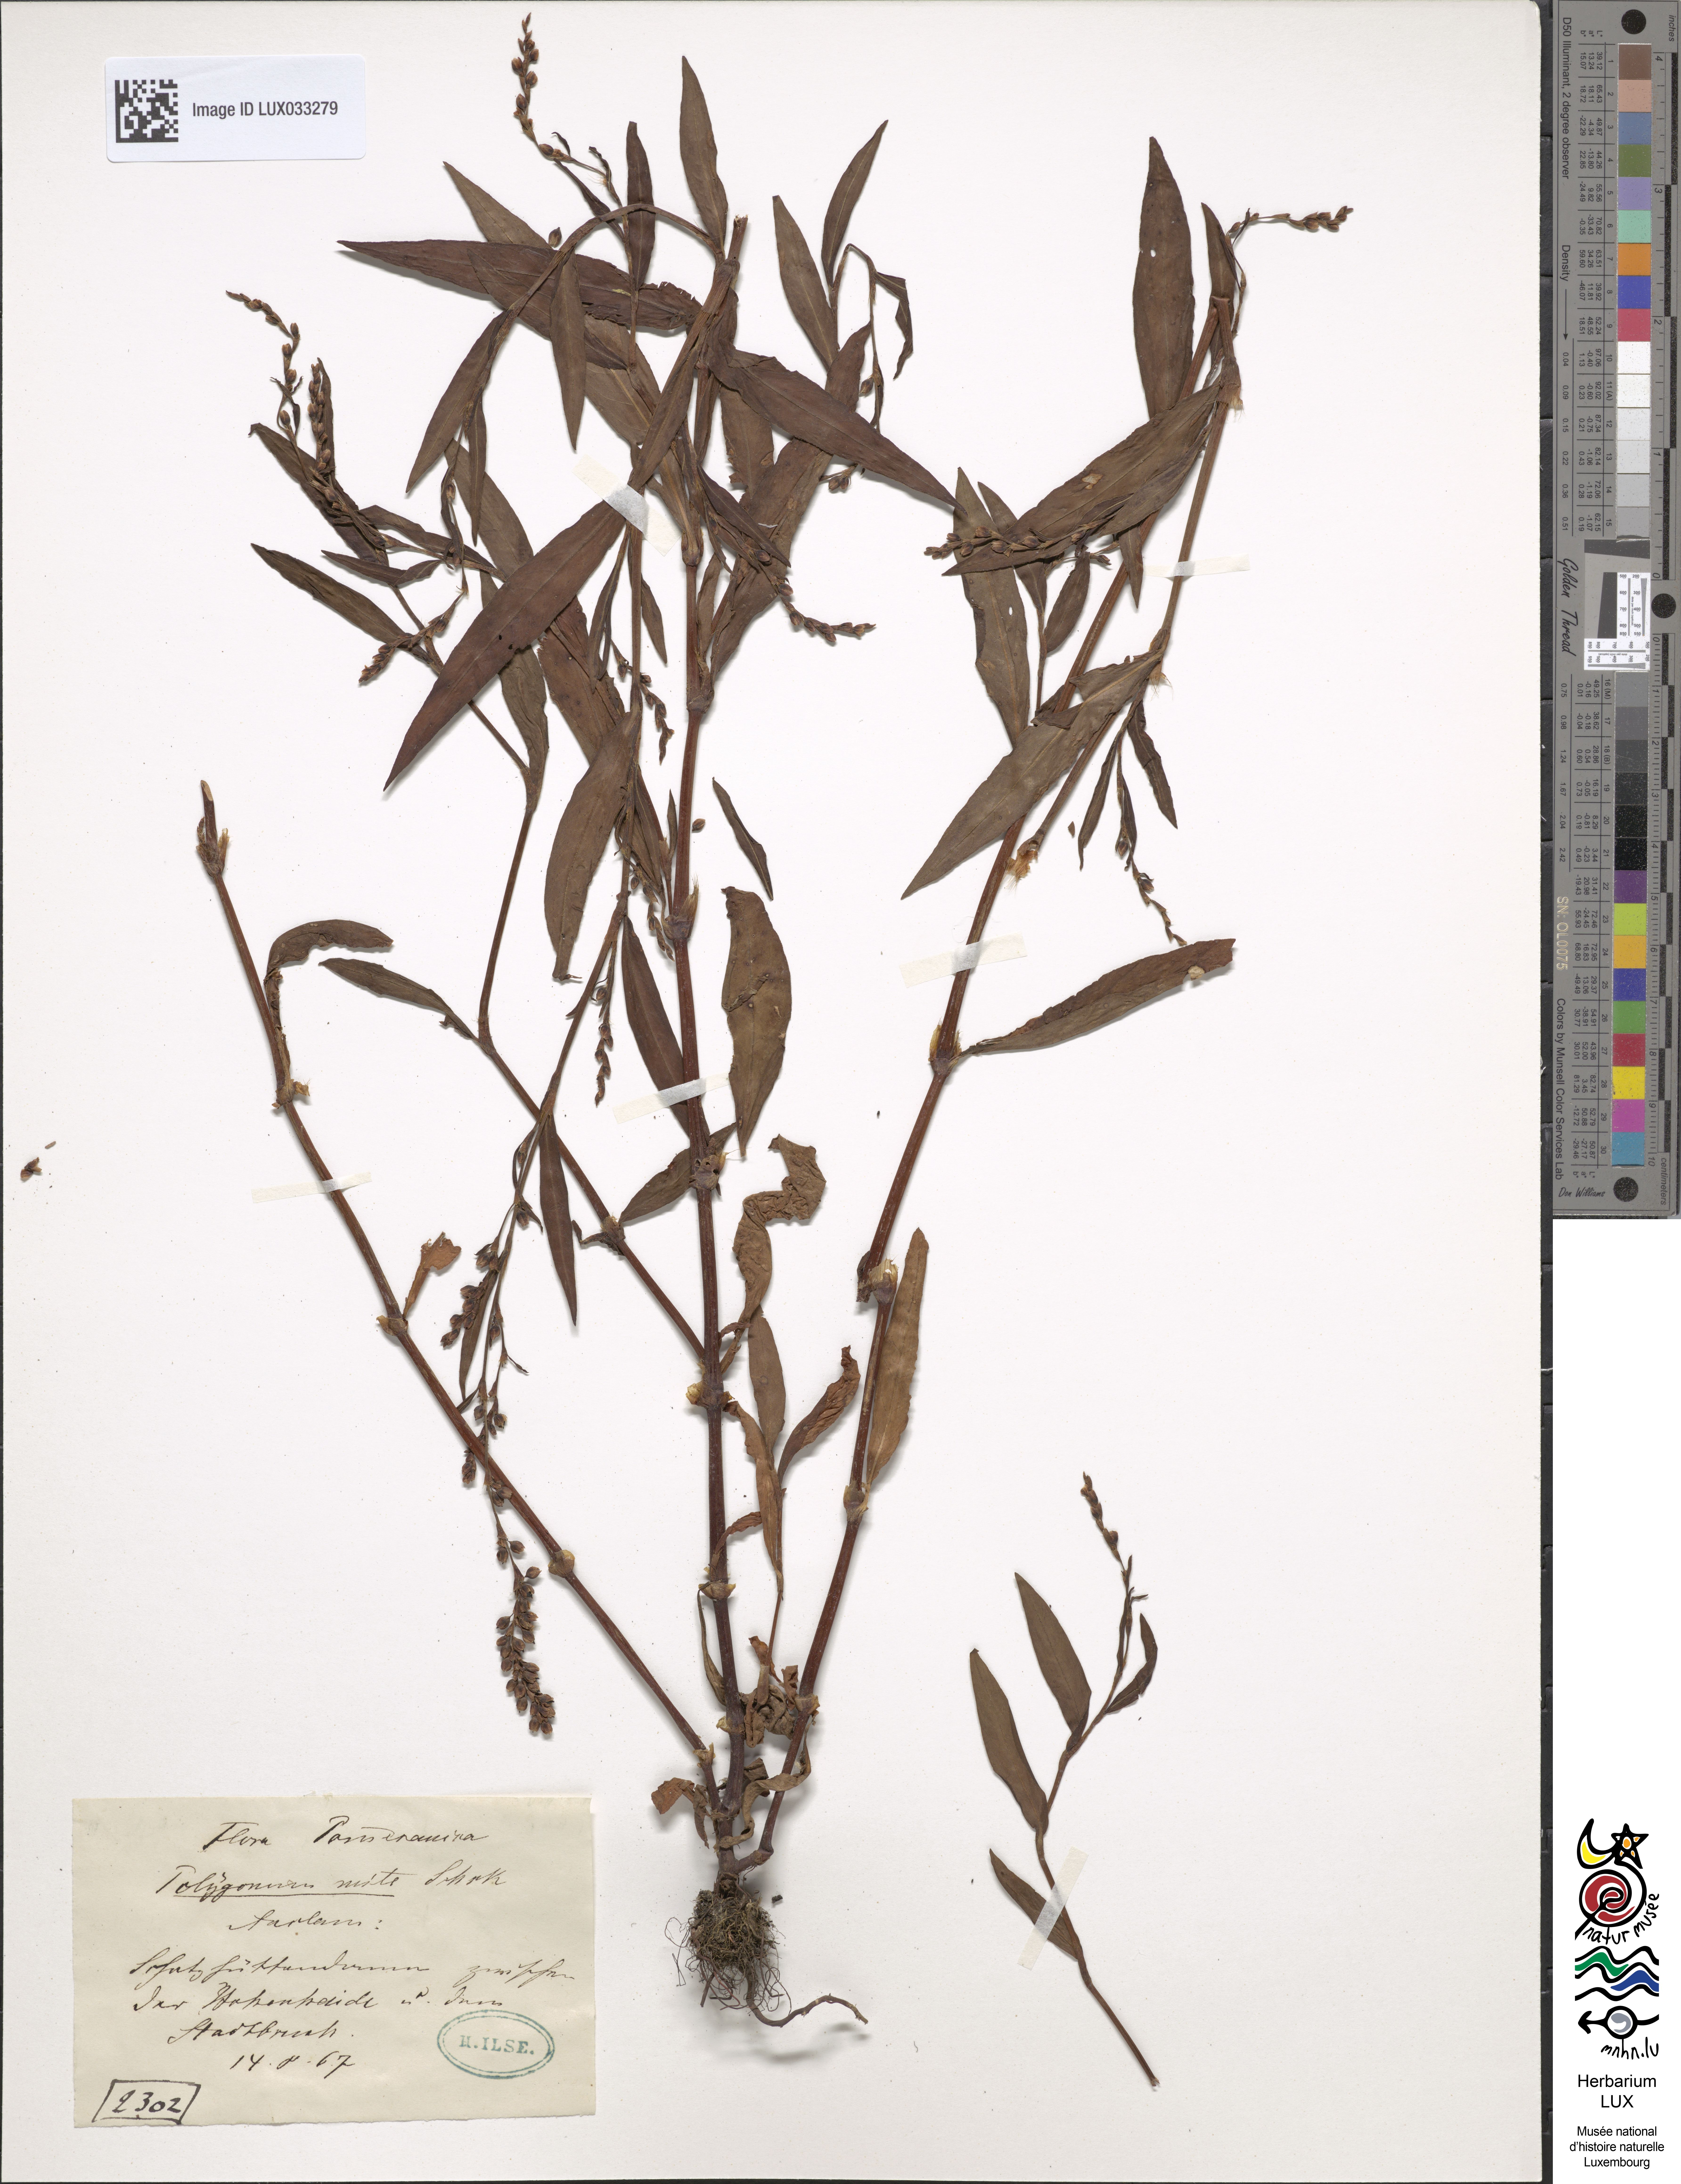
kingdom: Plantae
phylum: Tracheophyta
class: Magnoliopsida
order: Caryophyllales
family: Polygonaceae
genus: Persicaria
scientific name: Persicaria mitis
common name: Tasteless water-pepper
